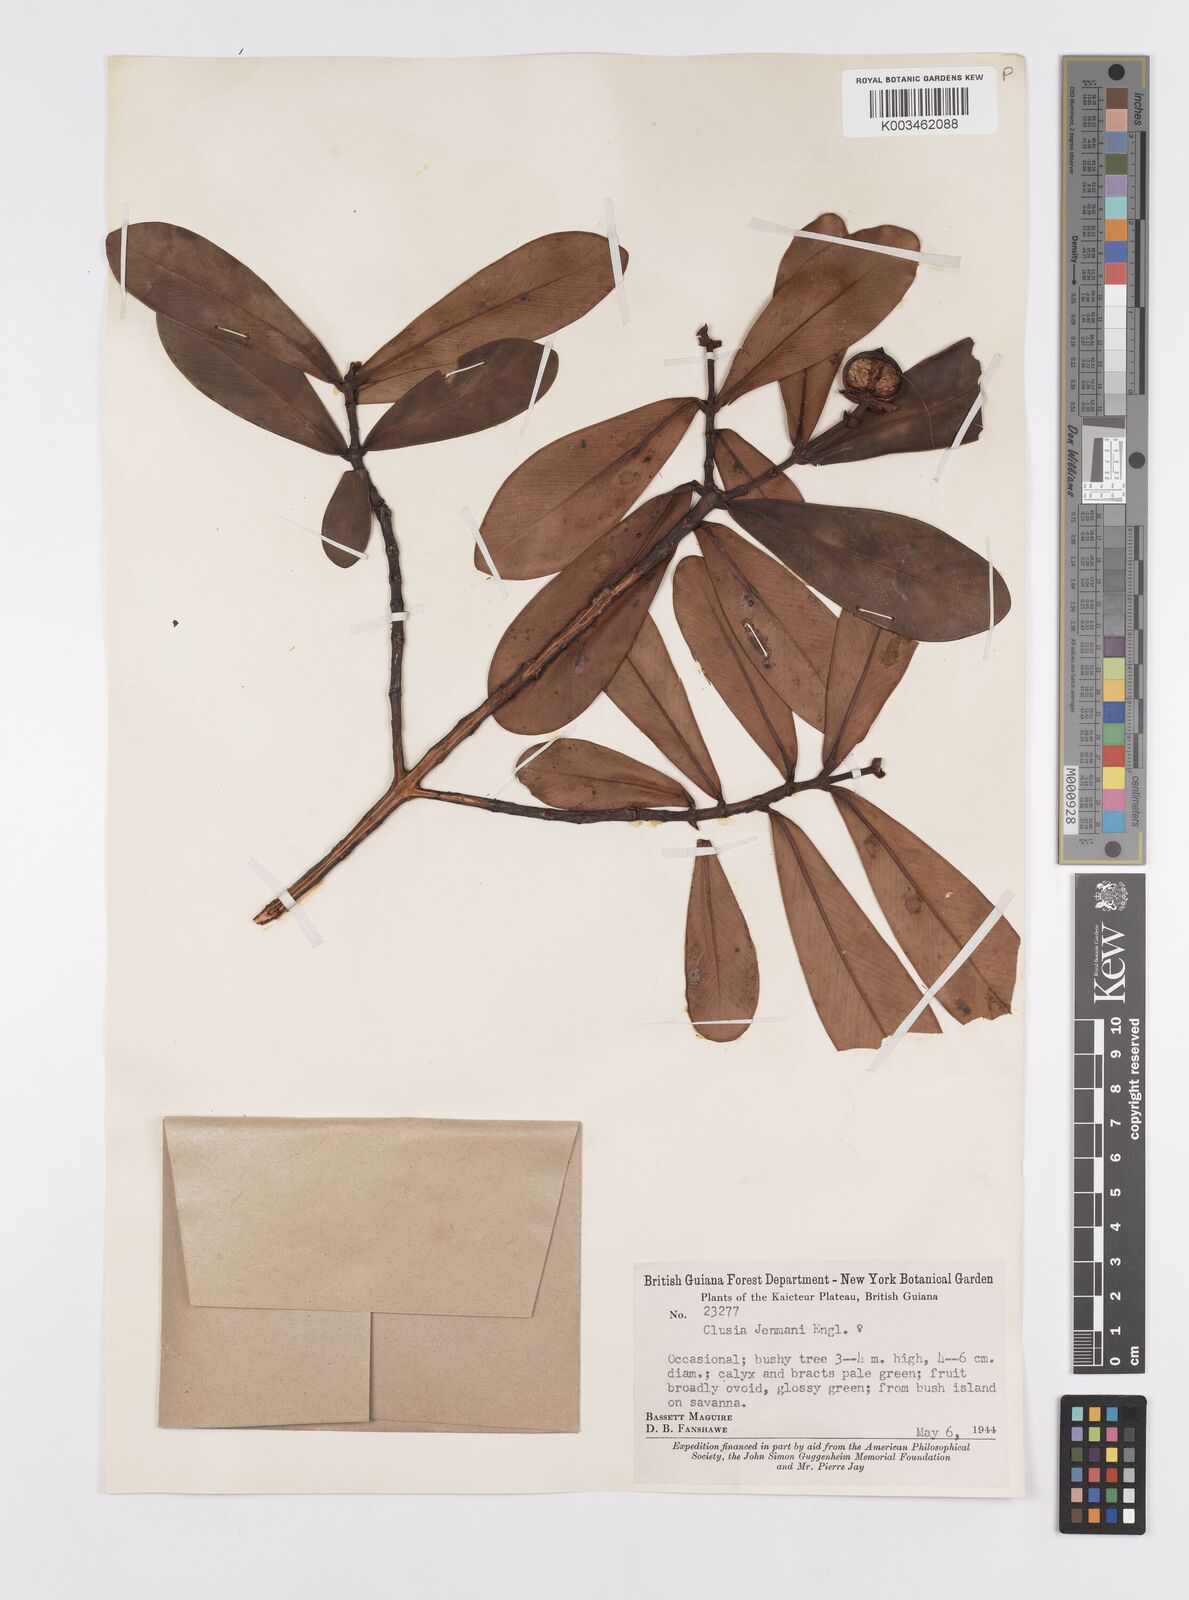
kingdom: Plantae
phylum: Tracheophyta
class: Magnoliopsida
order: Malpighiales
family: Clusiaceae
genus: Clusia
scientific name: Clusia myriandra
